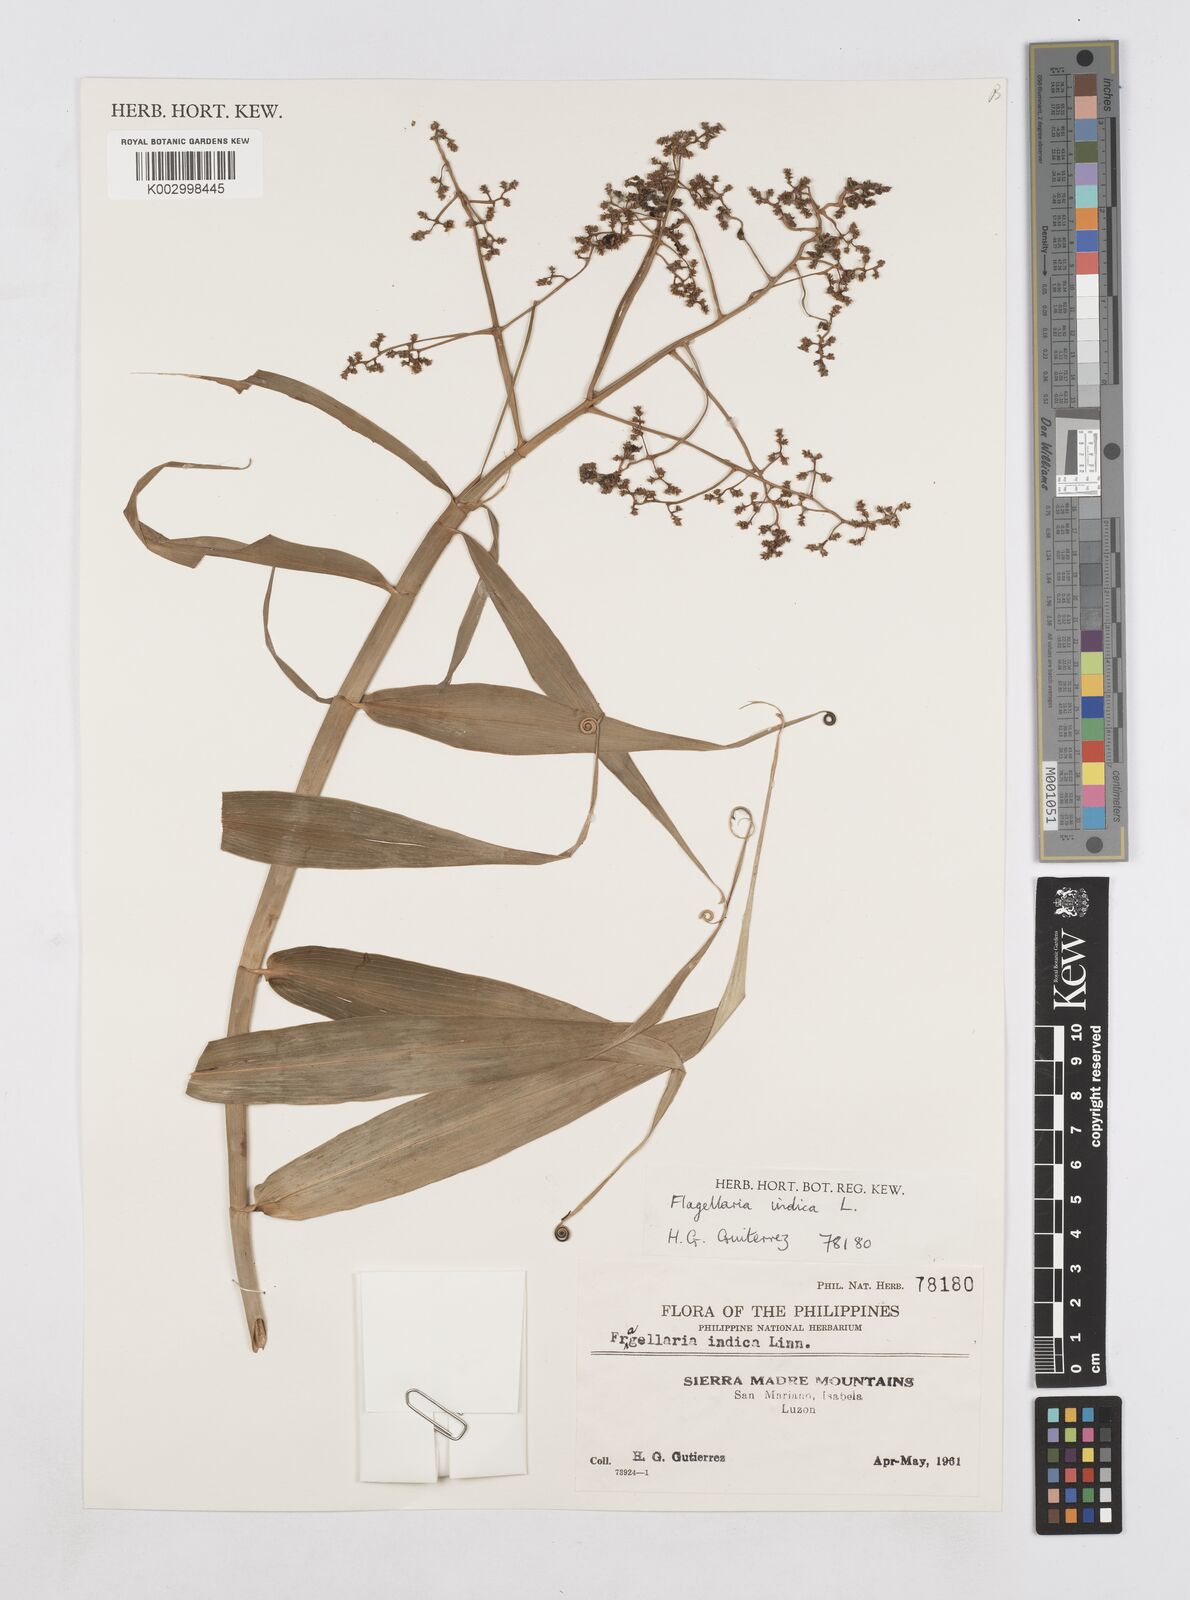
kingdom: Plantae
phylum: Tracheophyta
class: Liliopsida
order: Poales
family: Flagellariaceae
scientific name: Flagellariaceae
